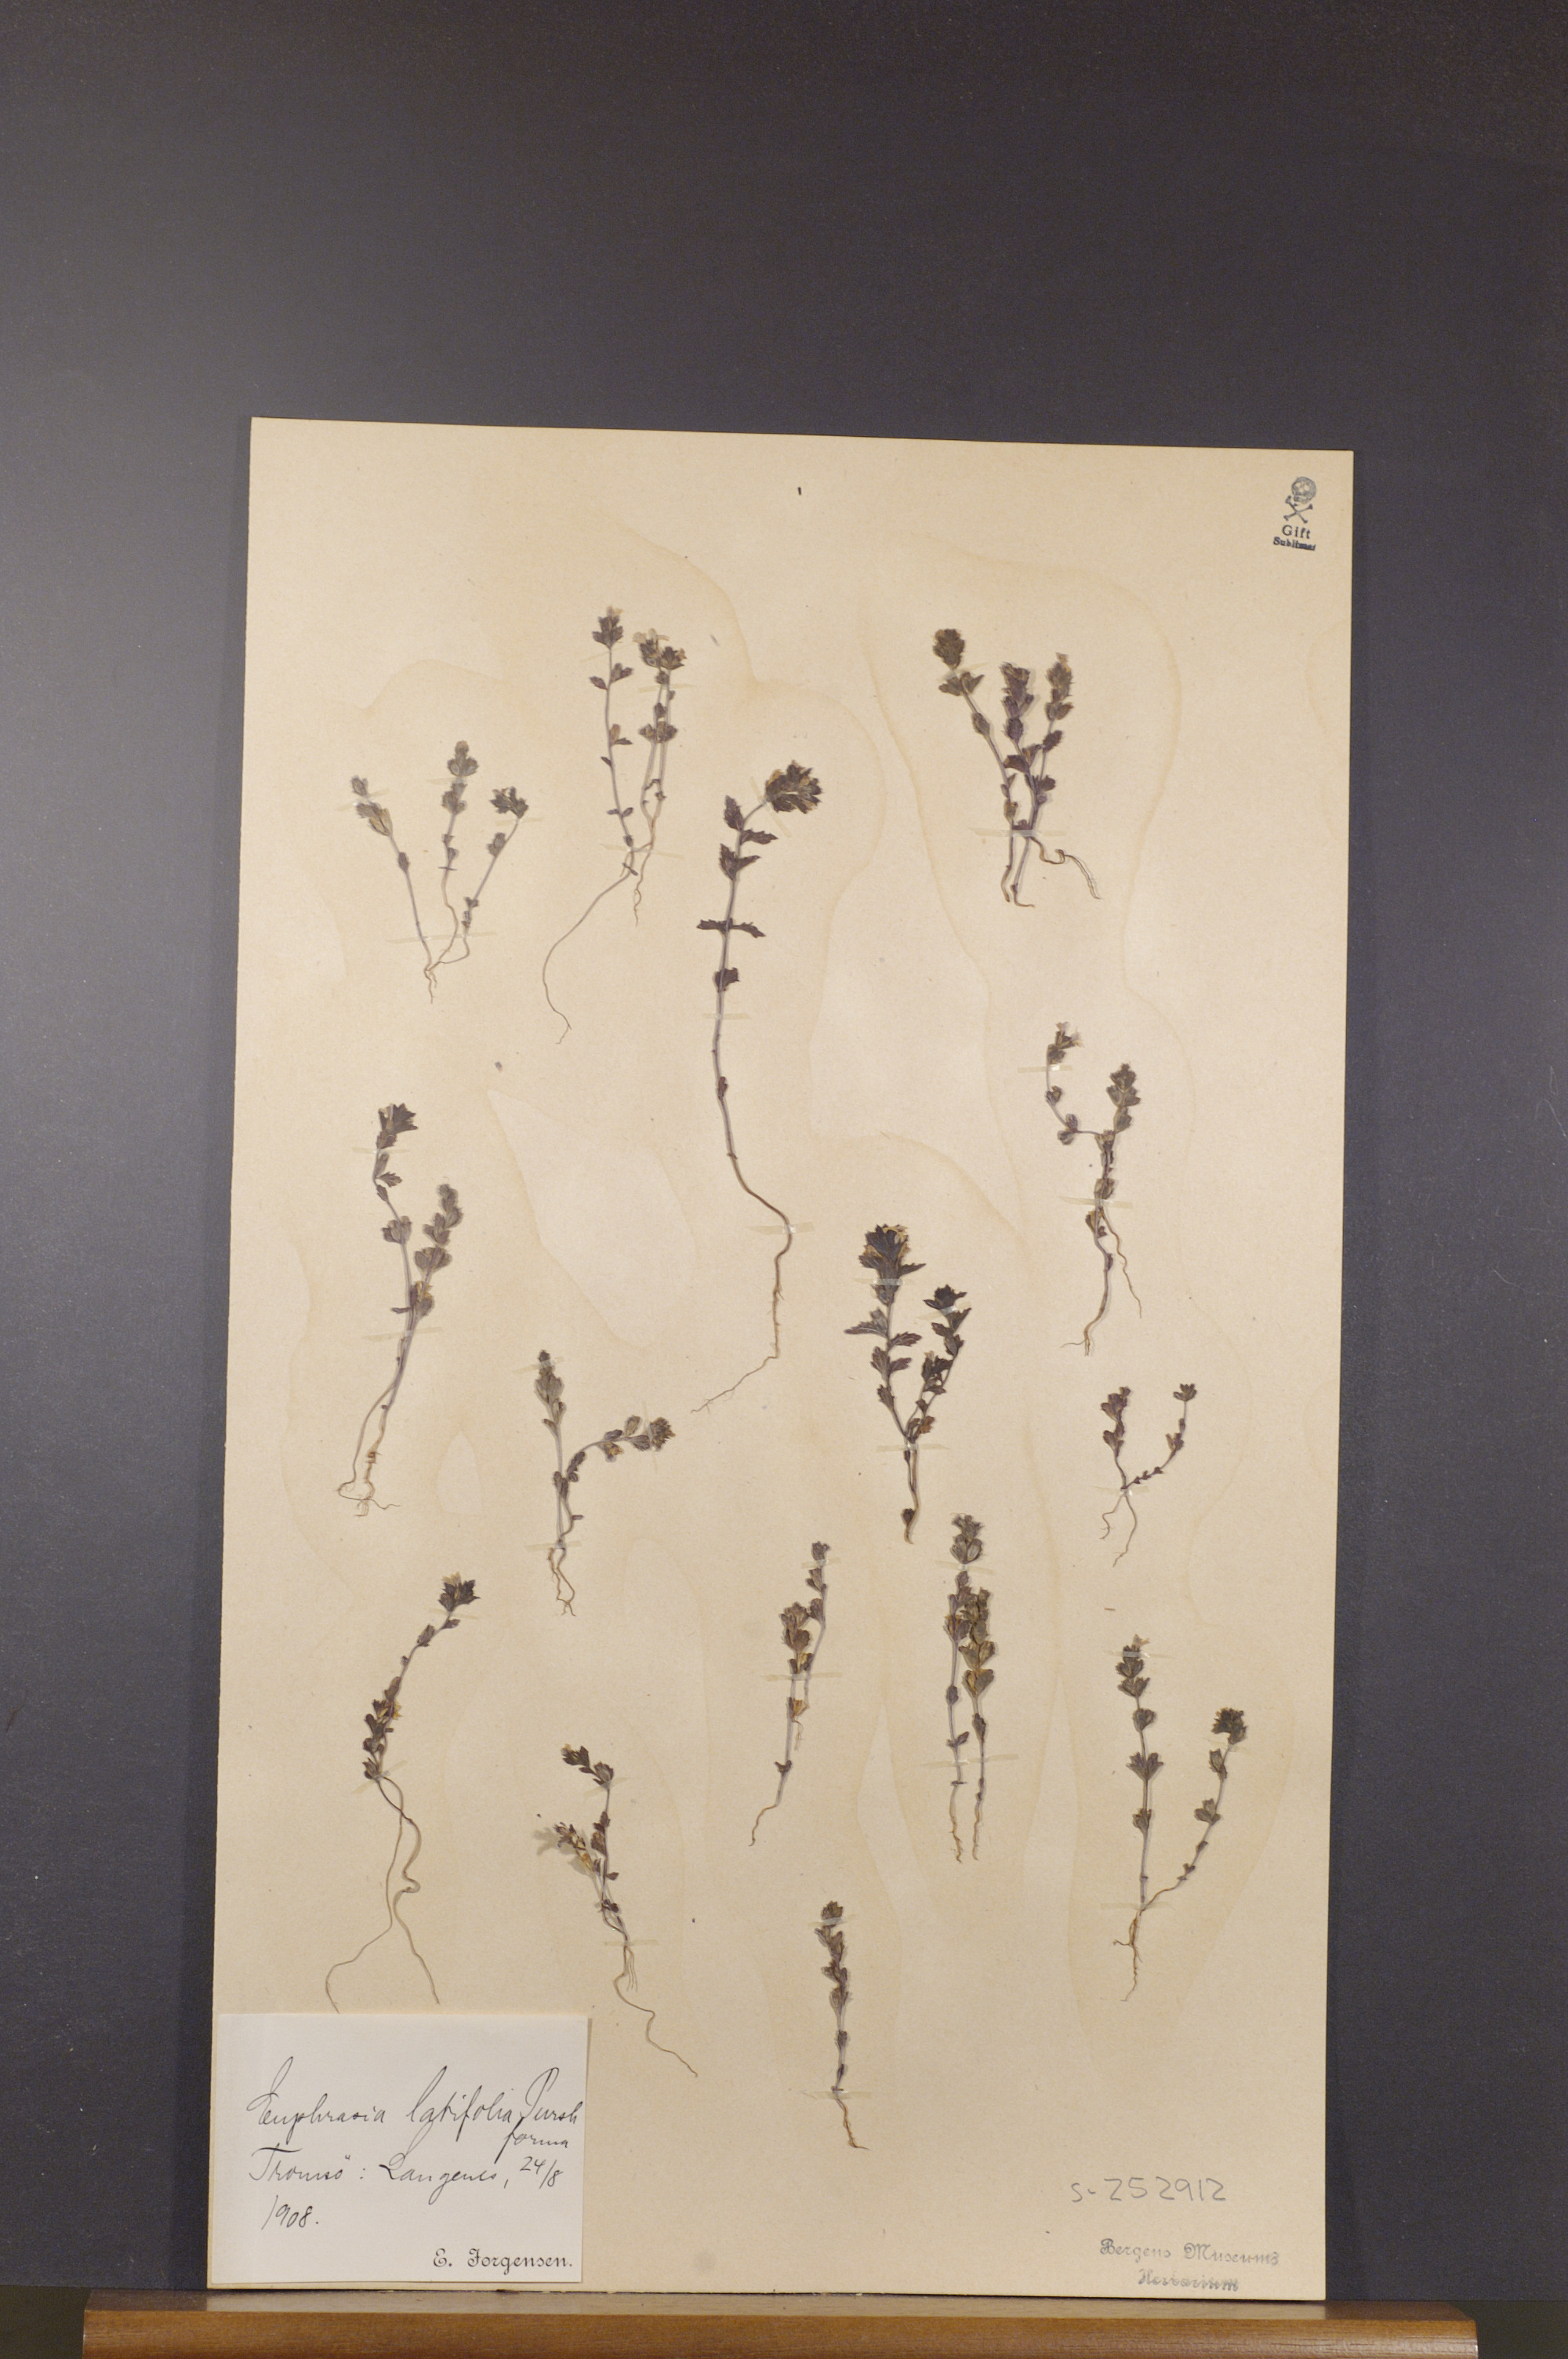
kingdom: Plantae
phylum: Tracheophyta
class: Magnoliopsida
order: Lamiales
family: Orobanchaceae
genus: Euphrasia
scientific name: Euphrasia wettsteinii
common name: Wettstein's eyebright
